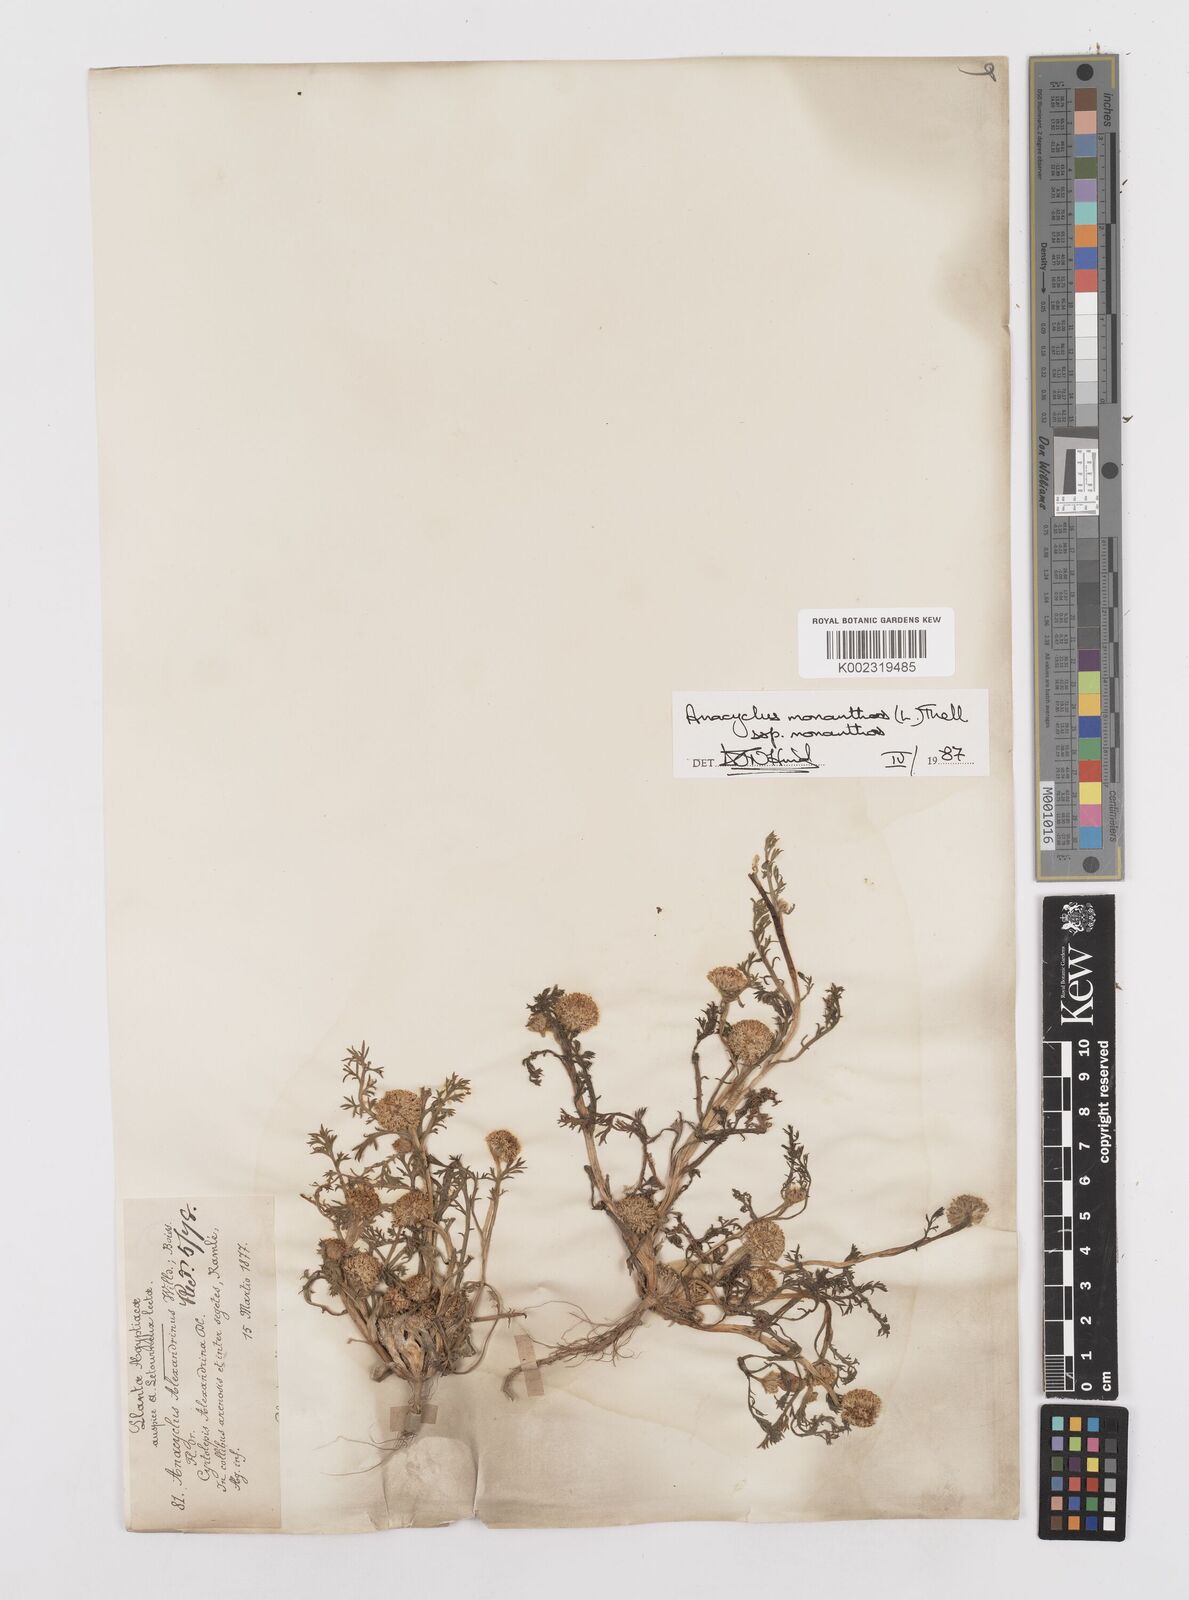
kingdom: Plantae
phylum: Tracheophyta
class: Magnoliopsida
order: Asterales
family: Asteraceae
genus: Anacyclus
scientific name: Anacyclus monanthos
